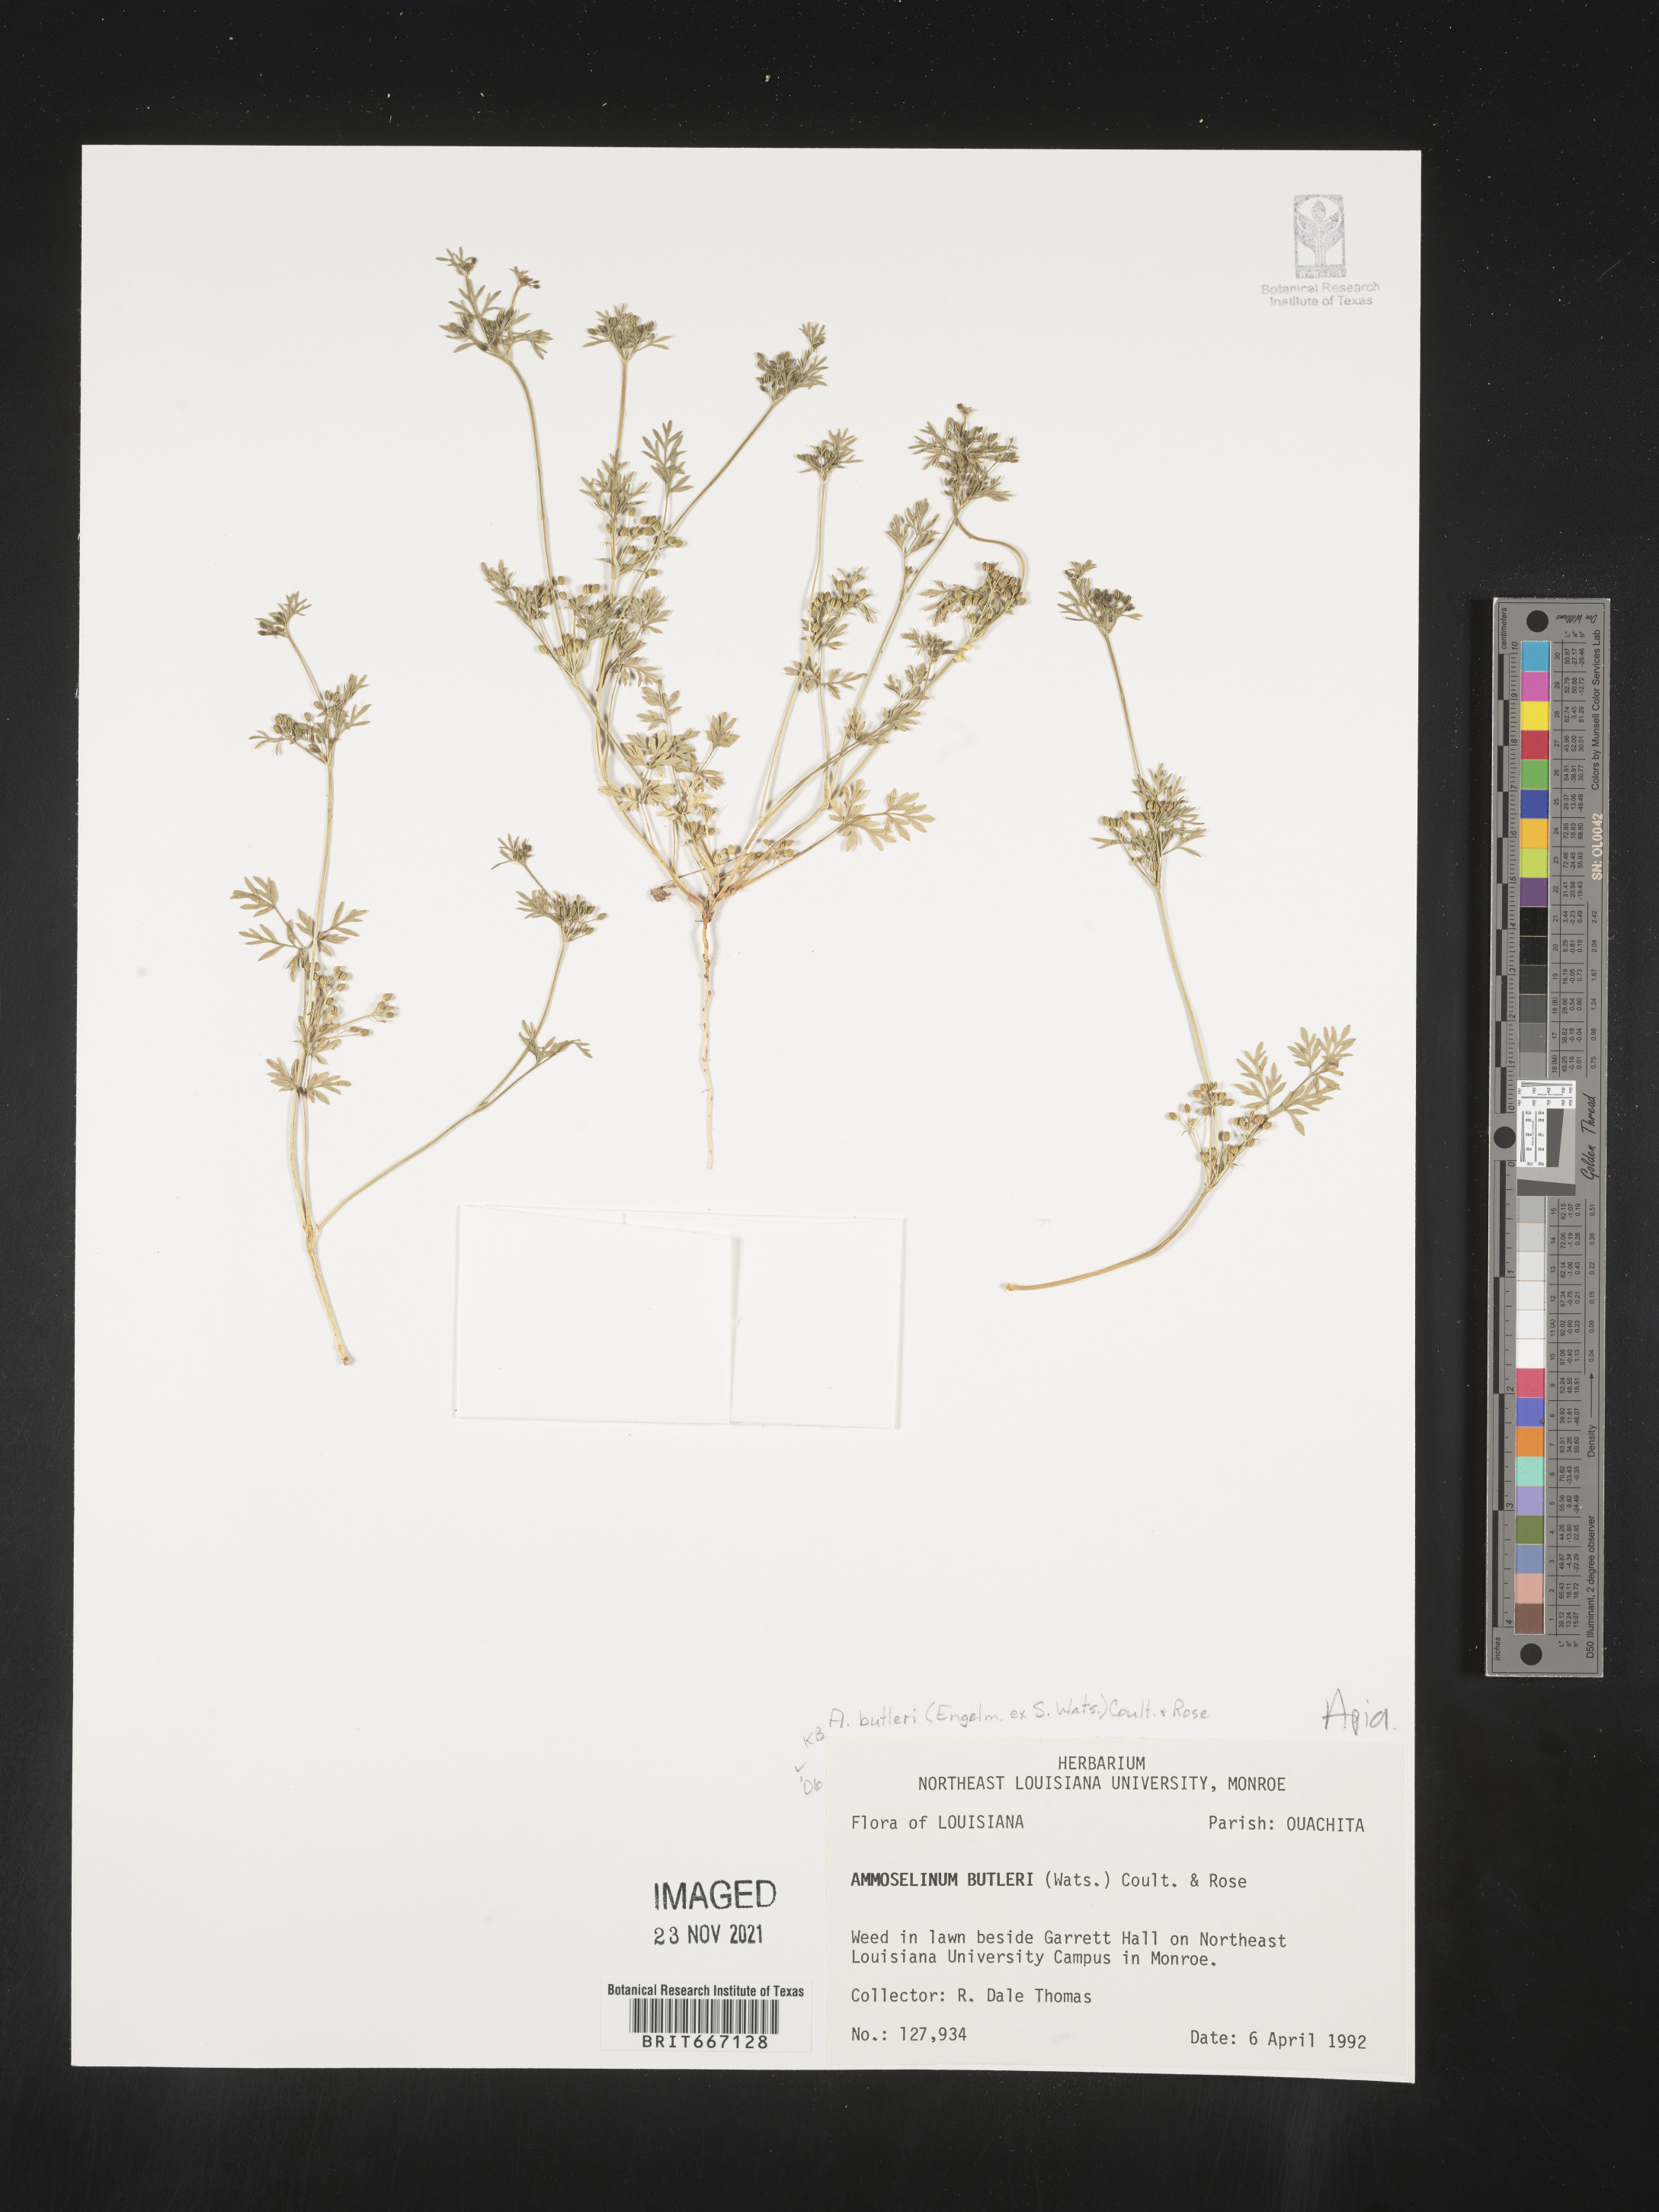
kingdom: Plantae
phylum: Tracheophyta
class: Magnoliopsida
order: Apiales
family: Apiaceae
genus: Ammoselinum
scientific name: Ammoselinum butleri
